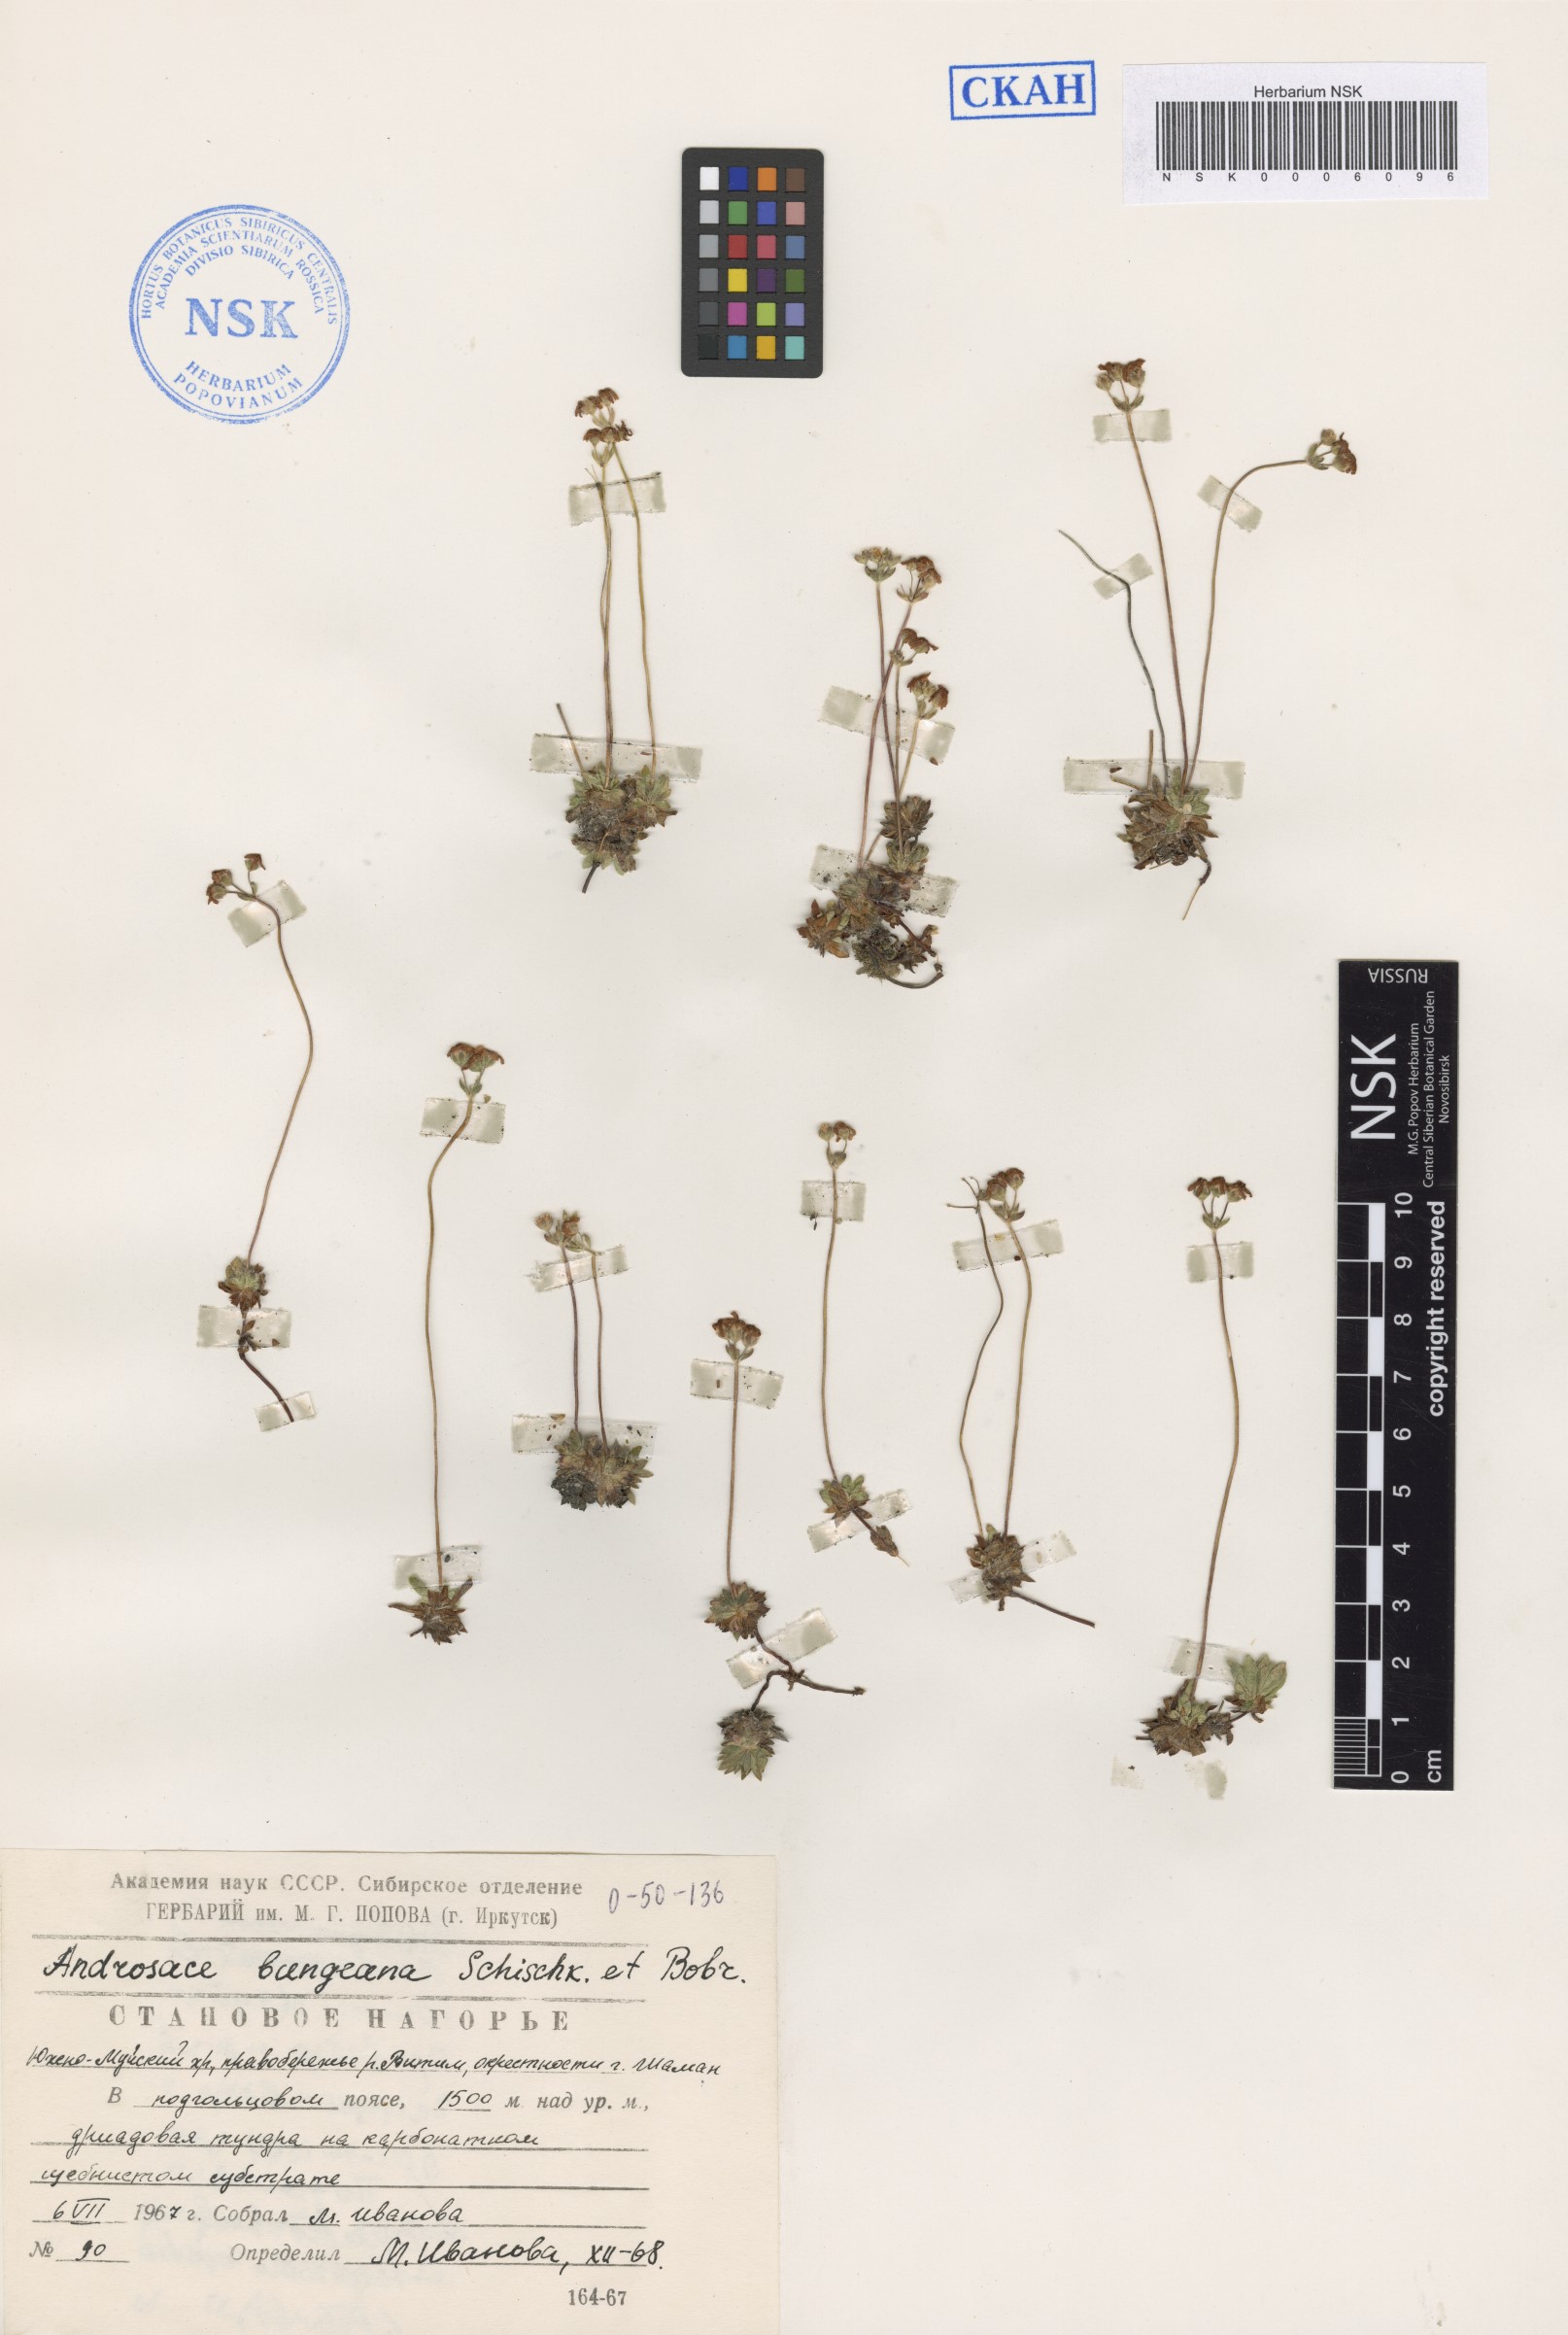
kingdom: Plantae
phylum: Tracheophyta
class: Magnoliopsida
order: Ericales
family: Primulaceae
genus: Androsace
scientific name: Androsace bungeana
